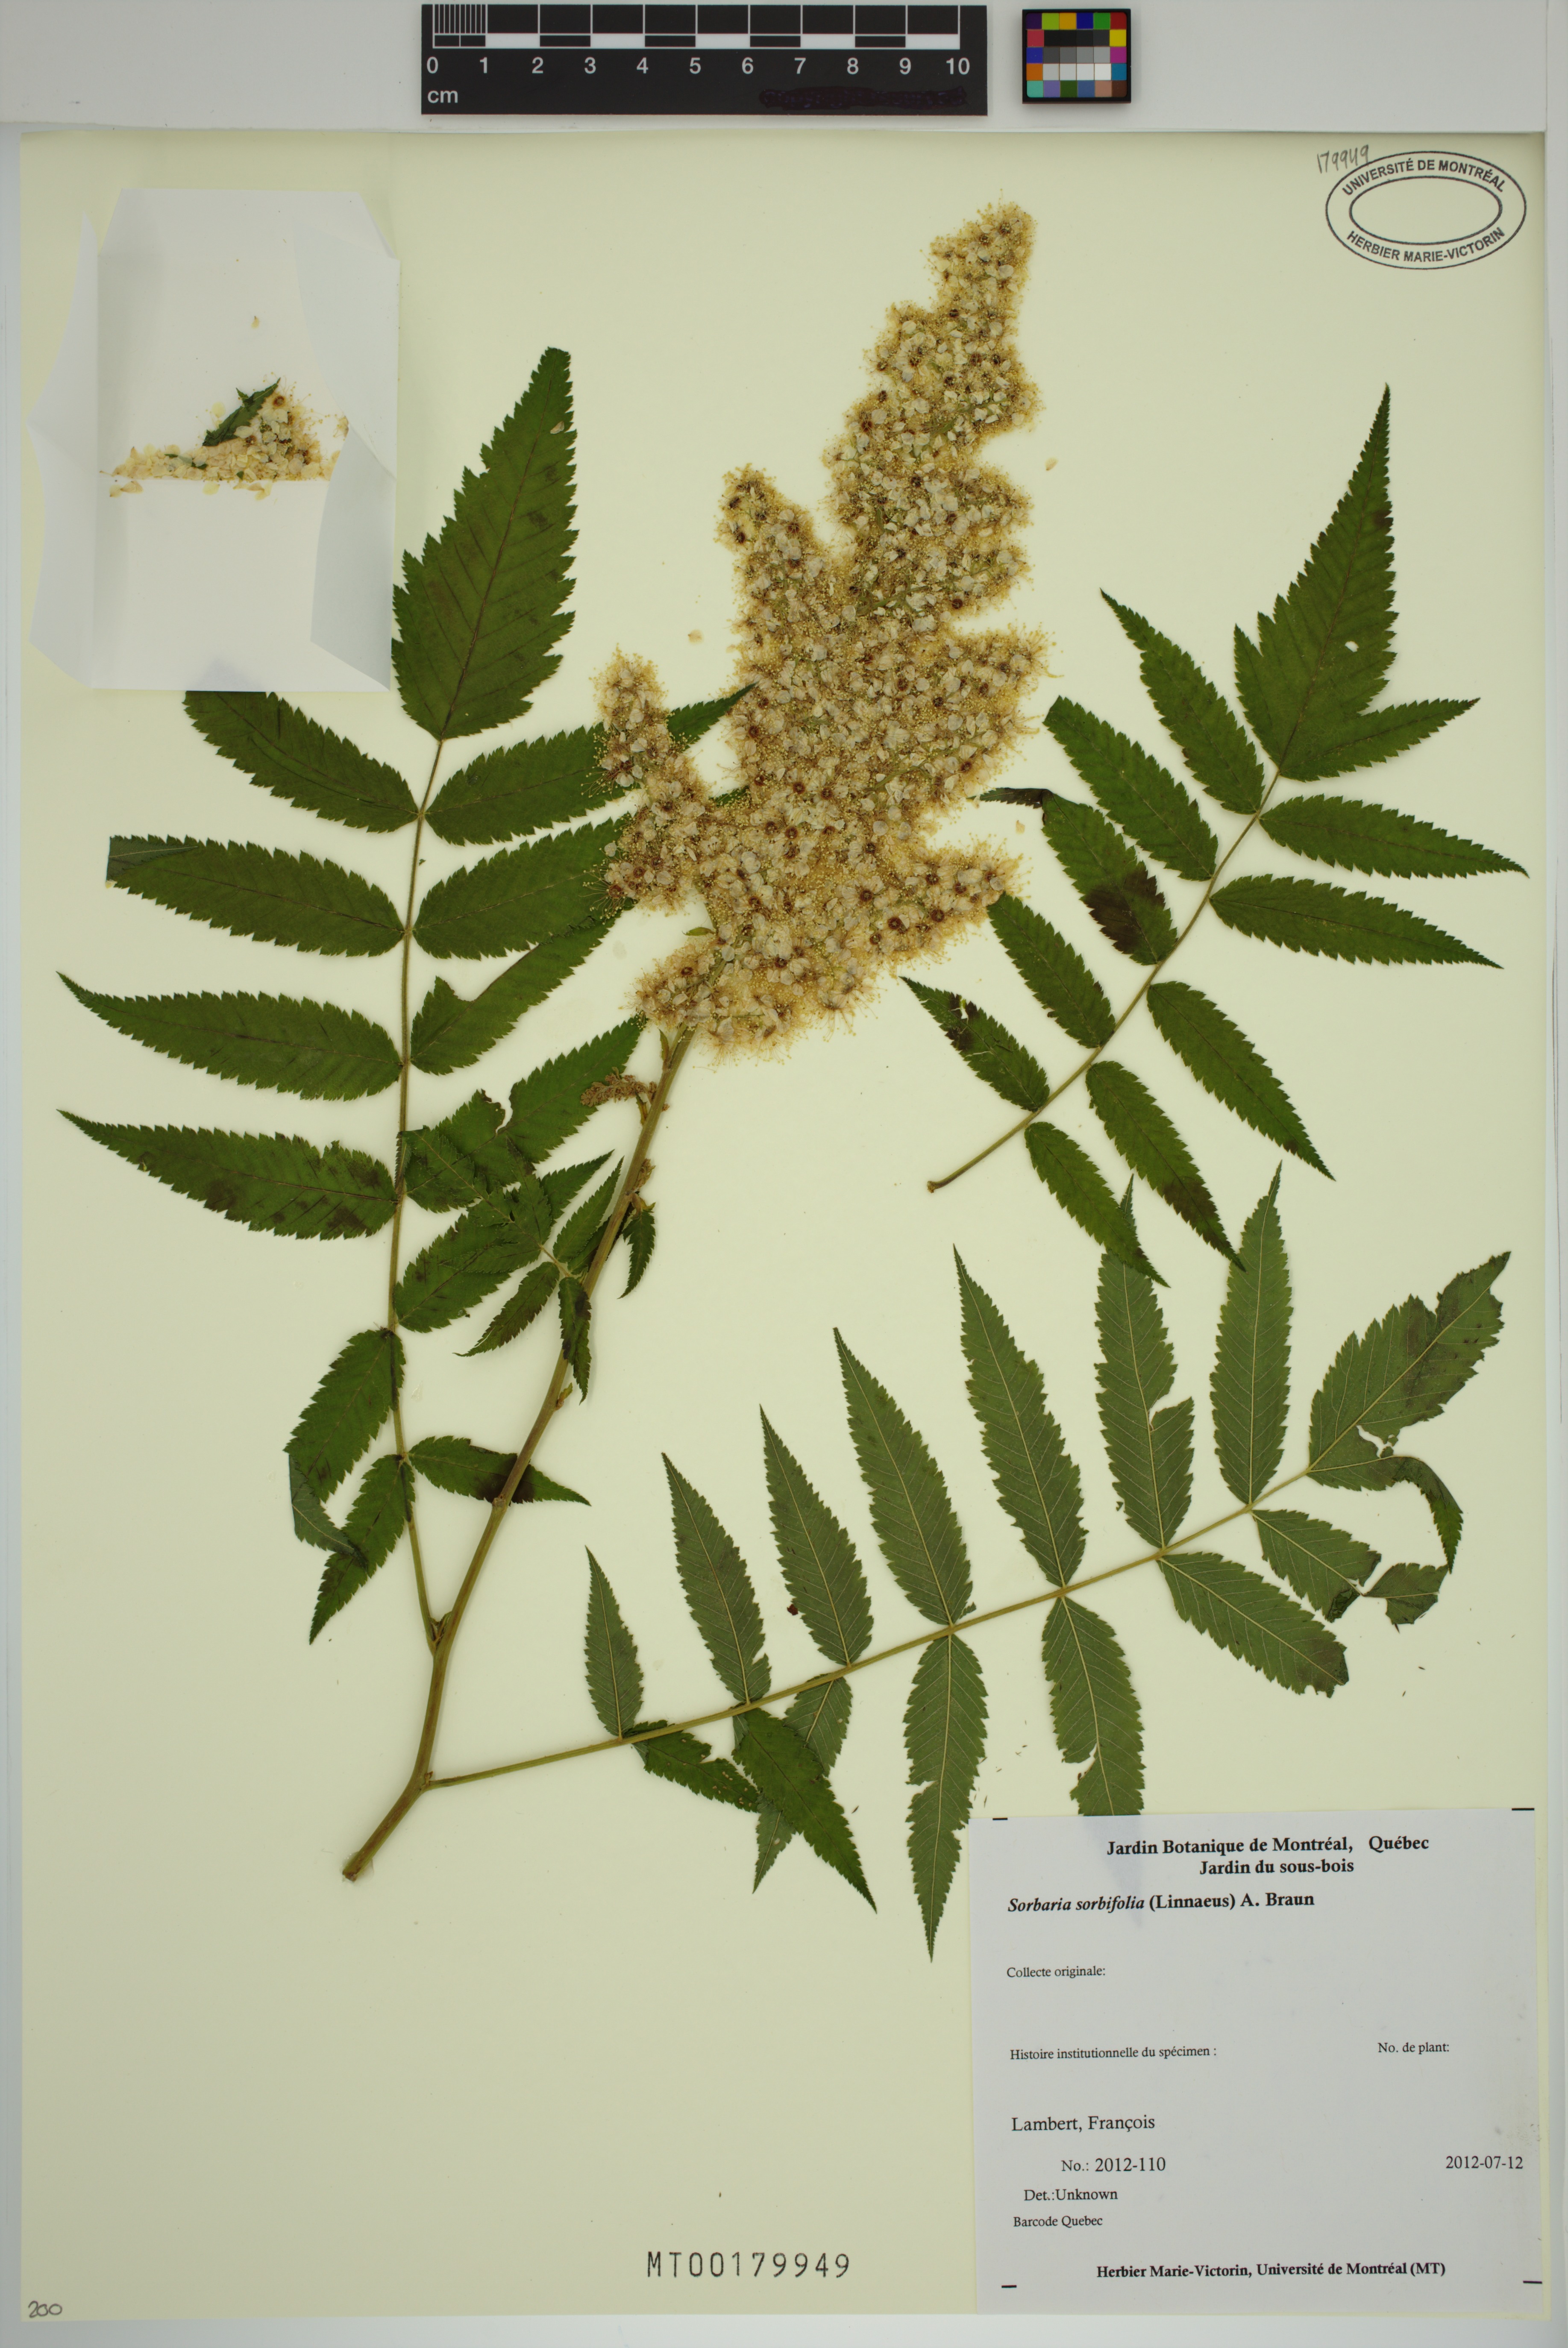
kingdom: Plantae
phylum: Tracheophyta
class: Magnoliopsida
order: Rosales
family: Rosaceae
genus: Sorbaria
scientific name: Sorbaria sorbifolia
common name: False spiraea
